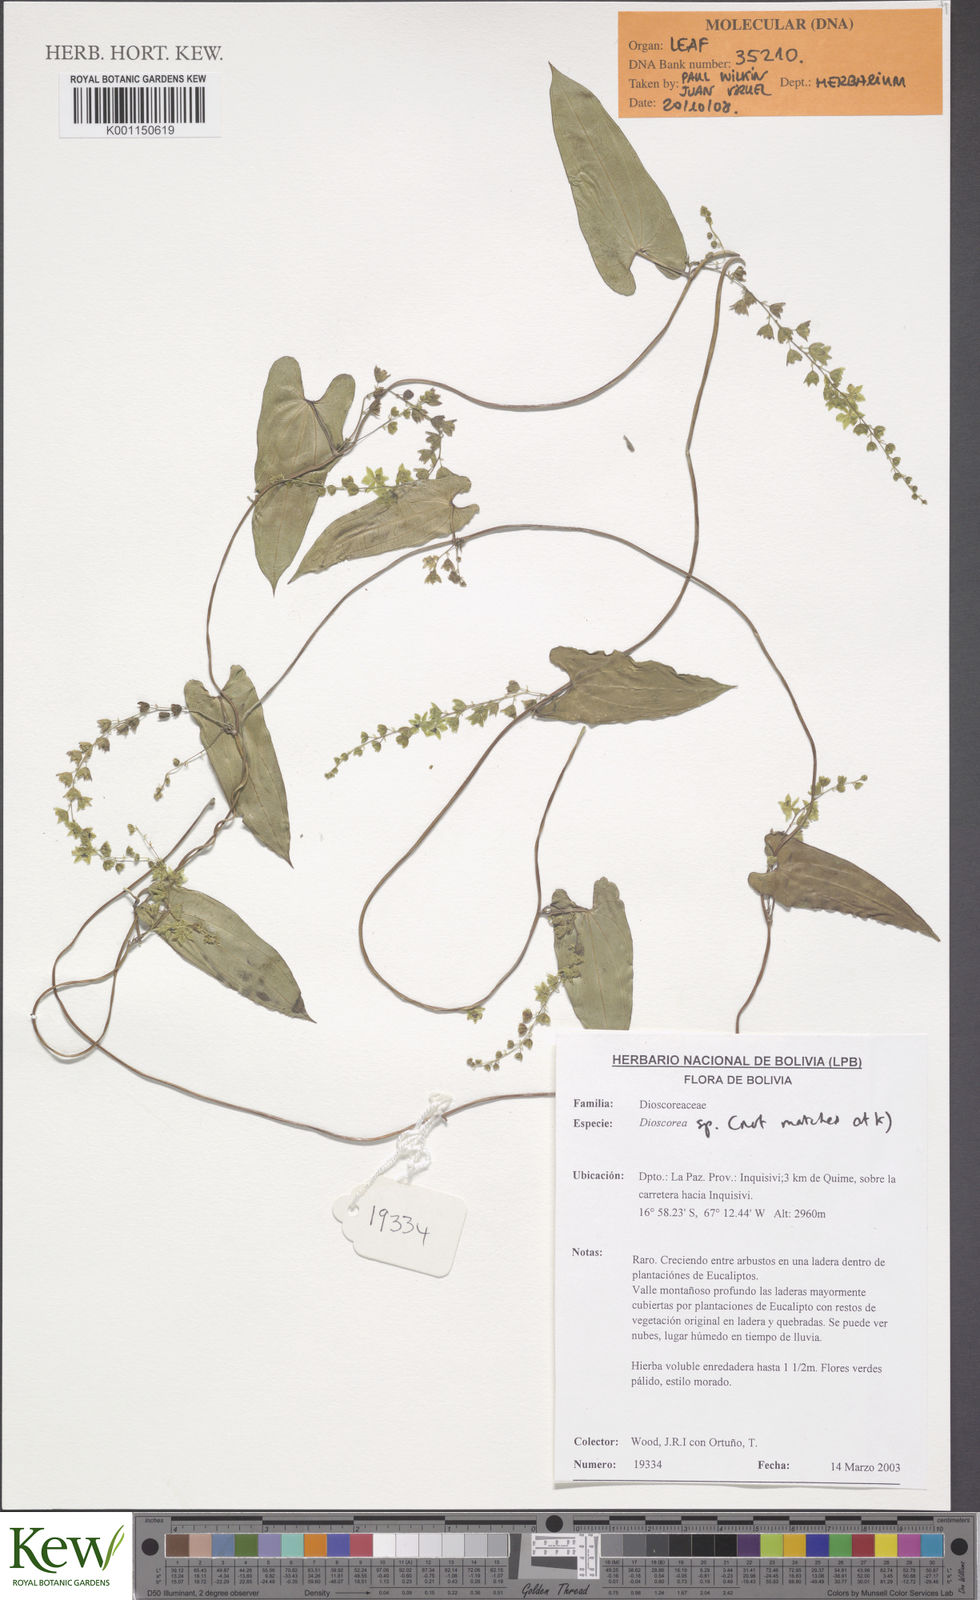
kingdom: Plantae
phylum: Tracheophyta
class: Liliopsida
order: Dioscoreales
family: Dioscoreaceae
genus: Dioscorea
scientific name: Dioscorea
